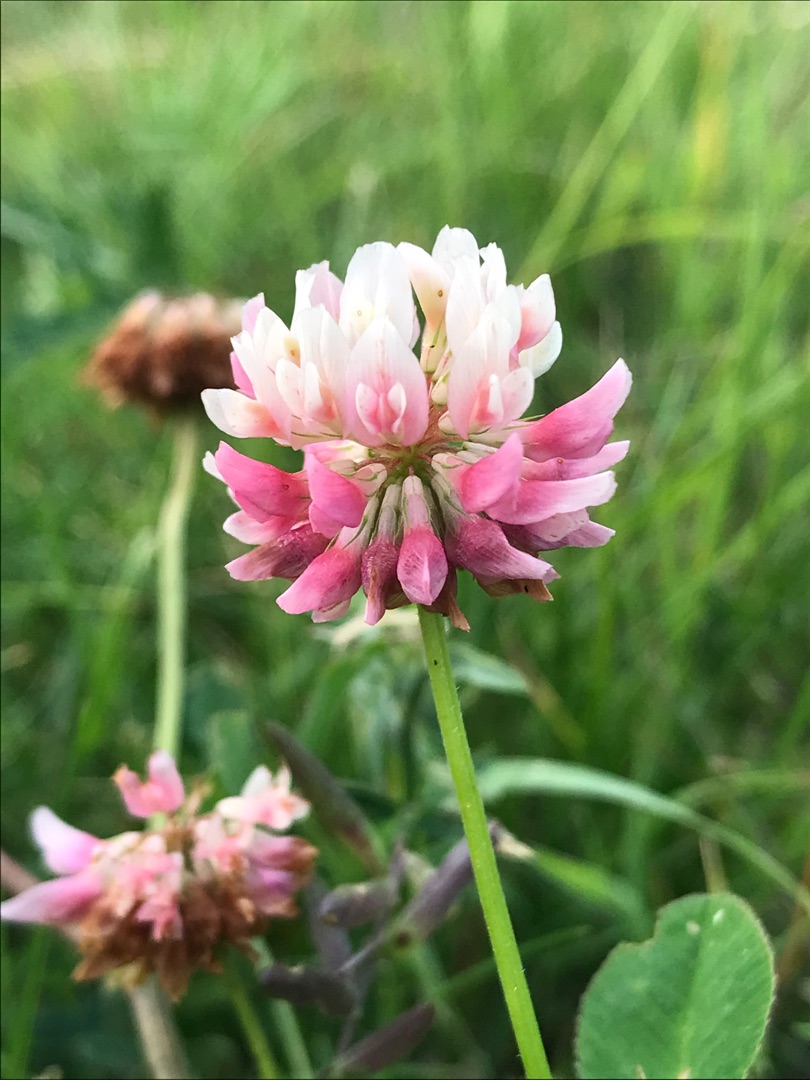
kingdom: Plantae
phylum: Tracheophyta
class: Magnoliopsida
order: Fabales
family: Fabaceae
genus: Trifolium
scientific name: Trifolium hybridum
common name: Alsike-kløver
